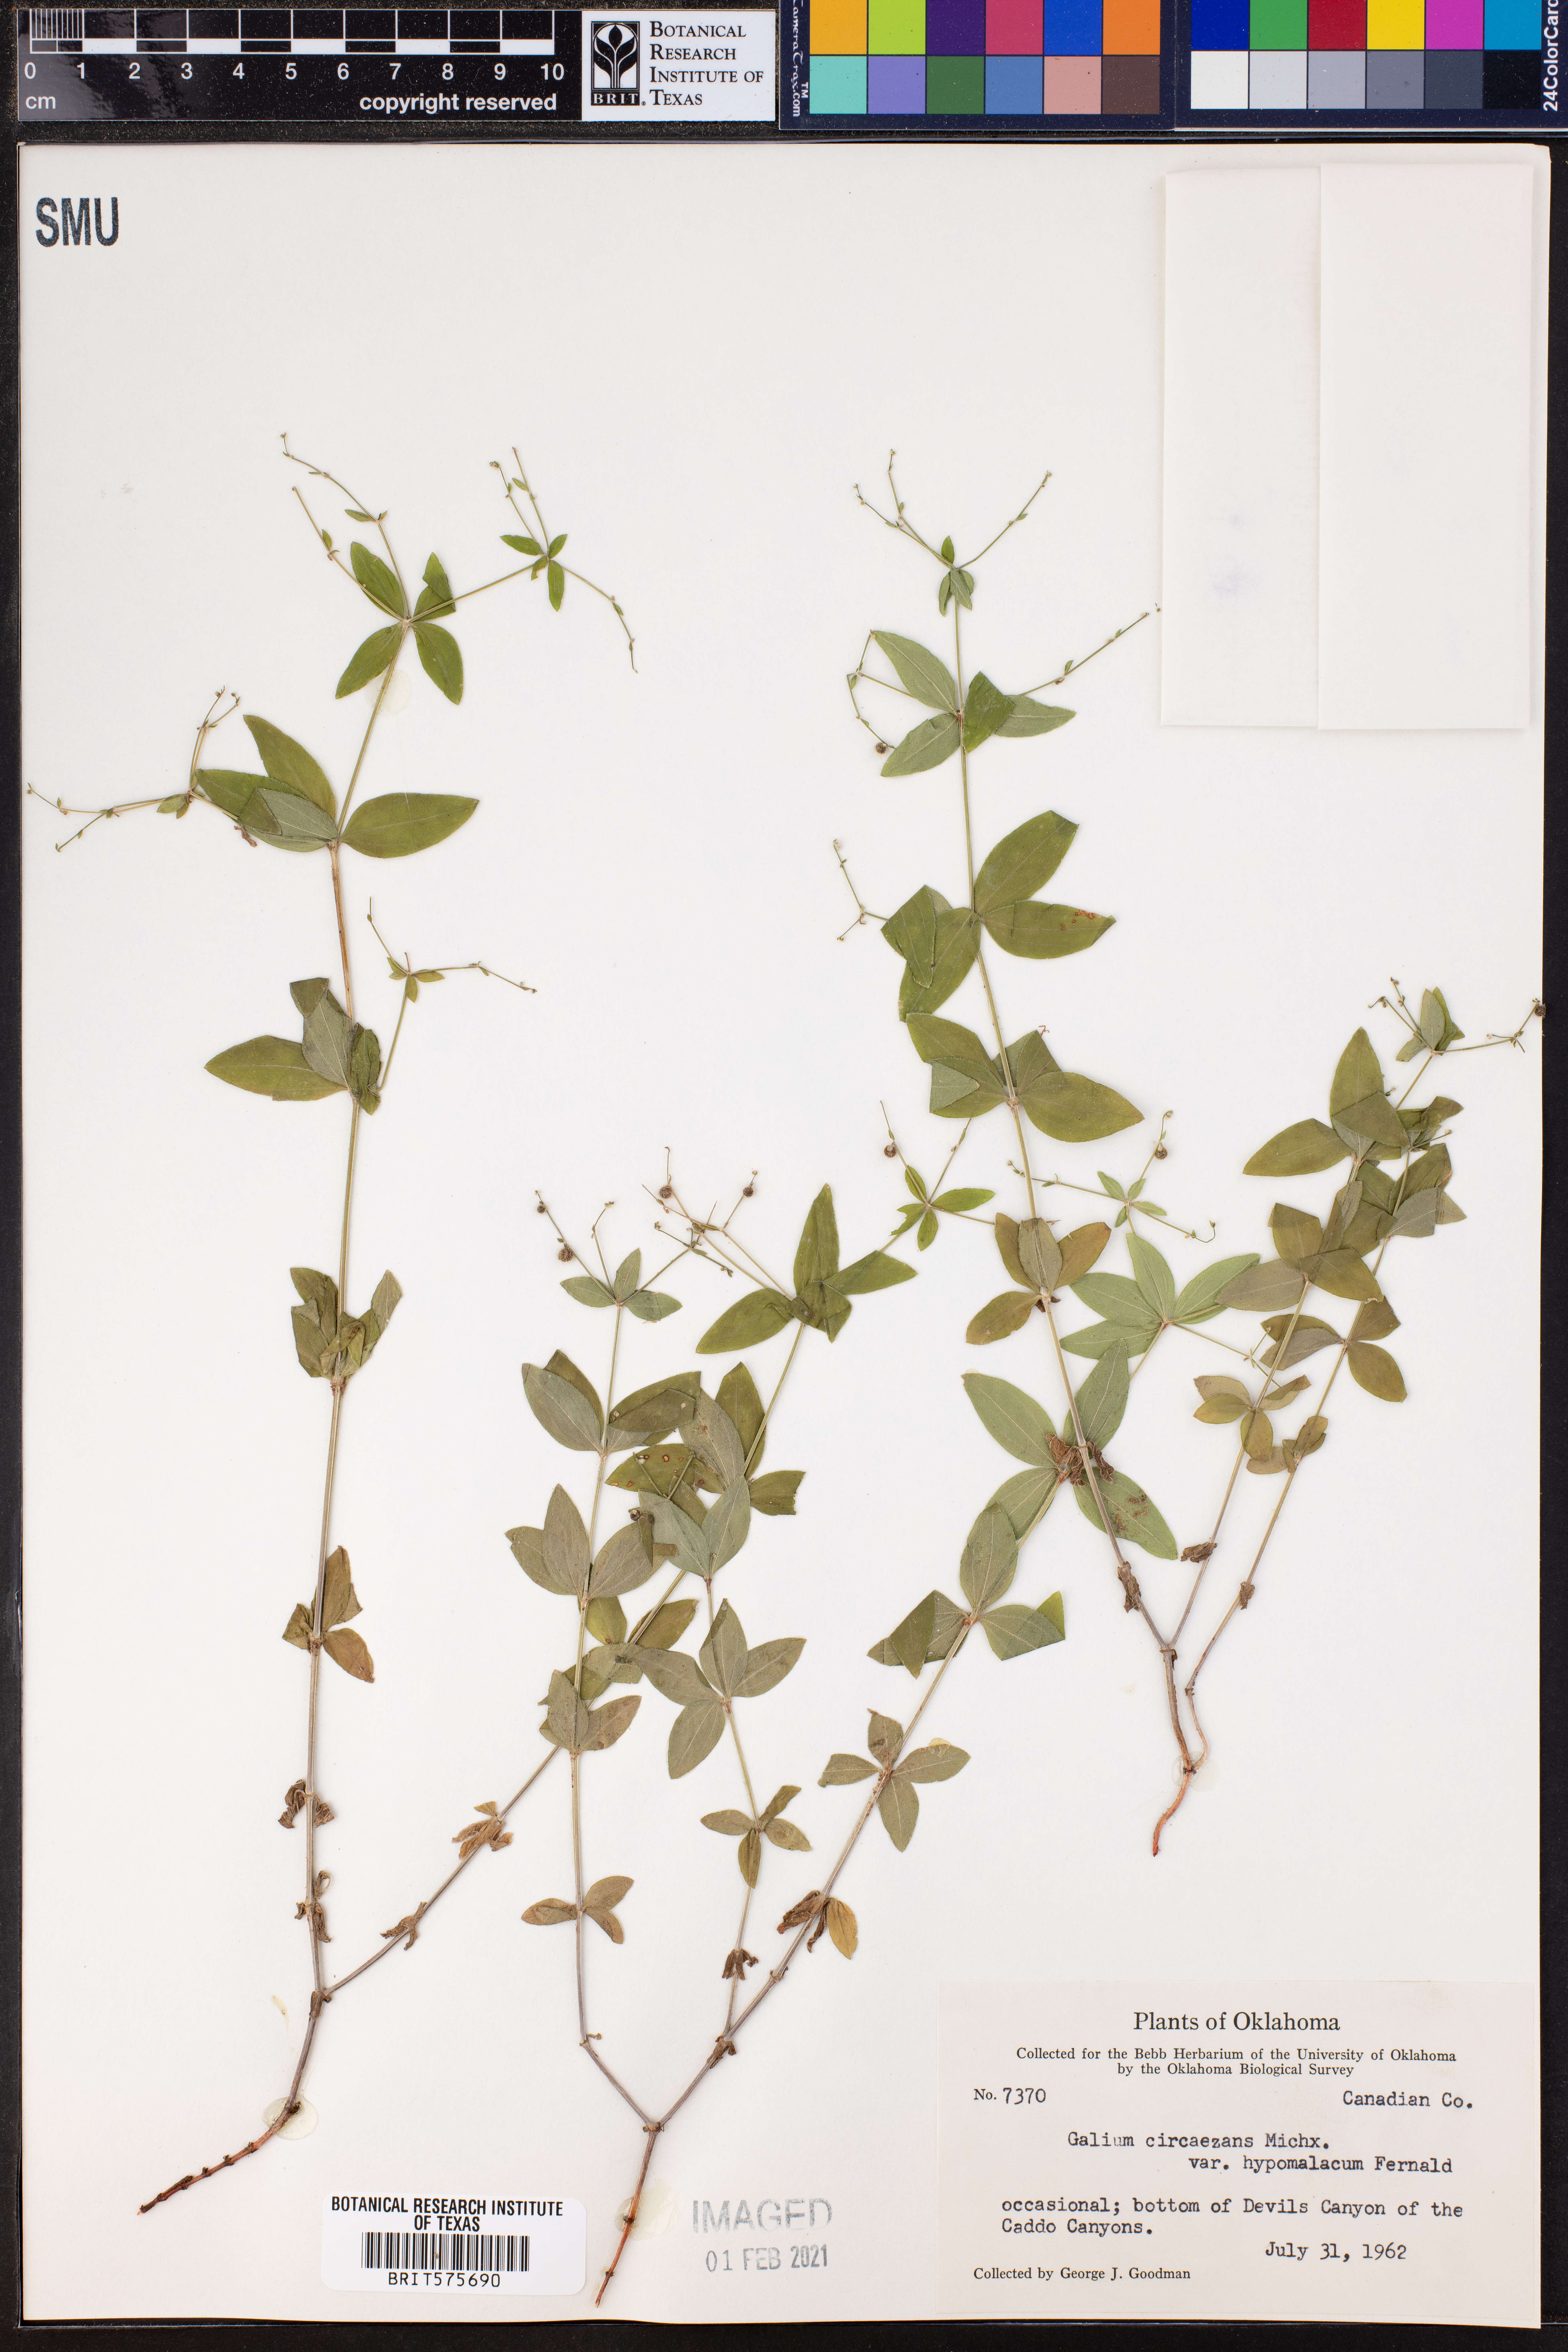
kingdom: Plantae
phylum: Tracheophyta
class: Magnoliopsida
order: Gentianales
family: Rubiaceae
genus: Galium
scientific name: Galium circaezans
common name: Forest bedstraw
